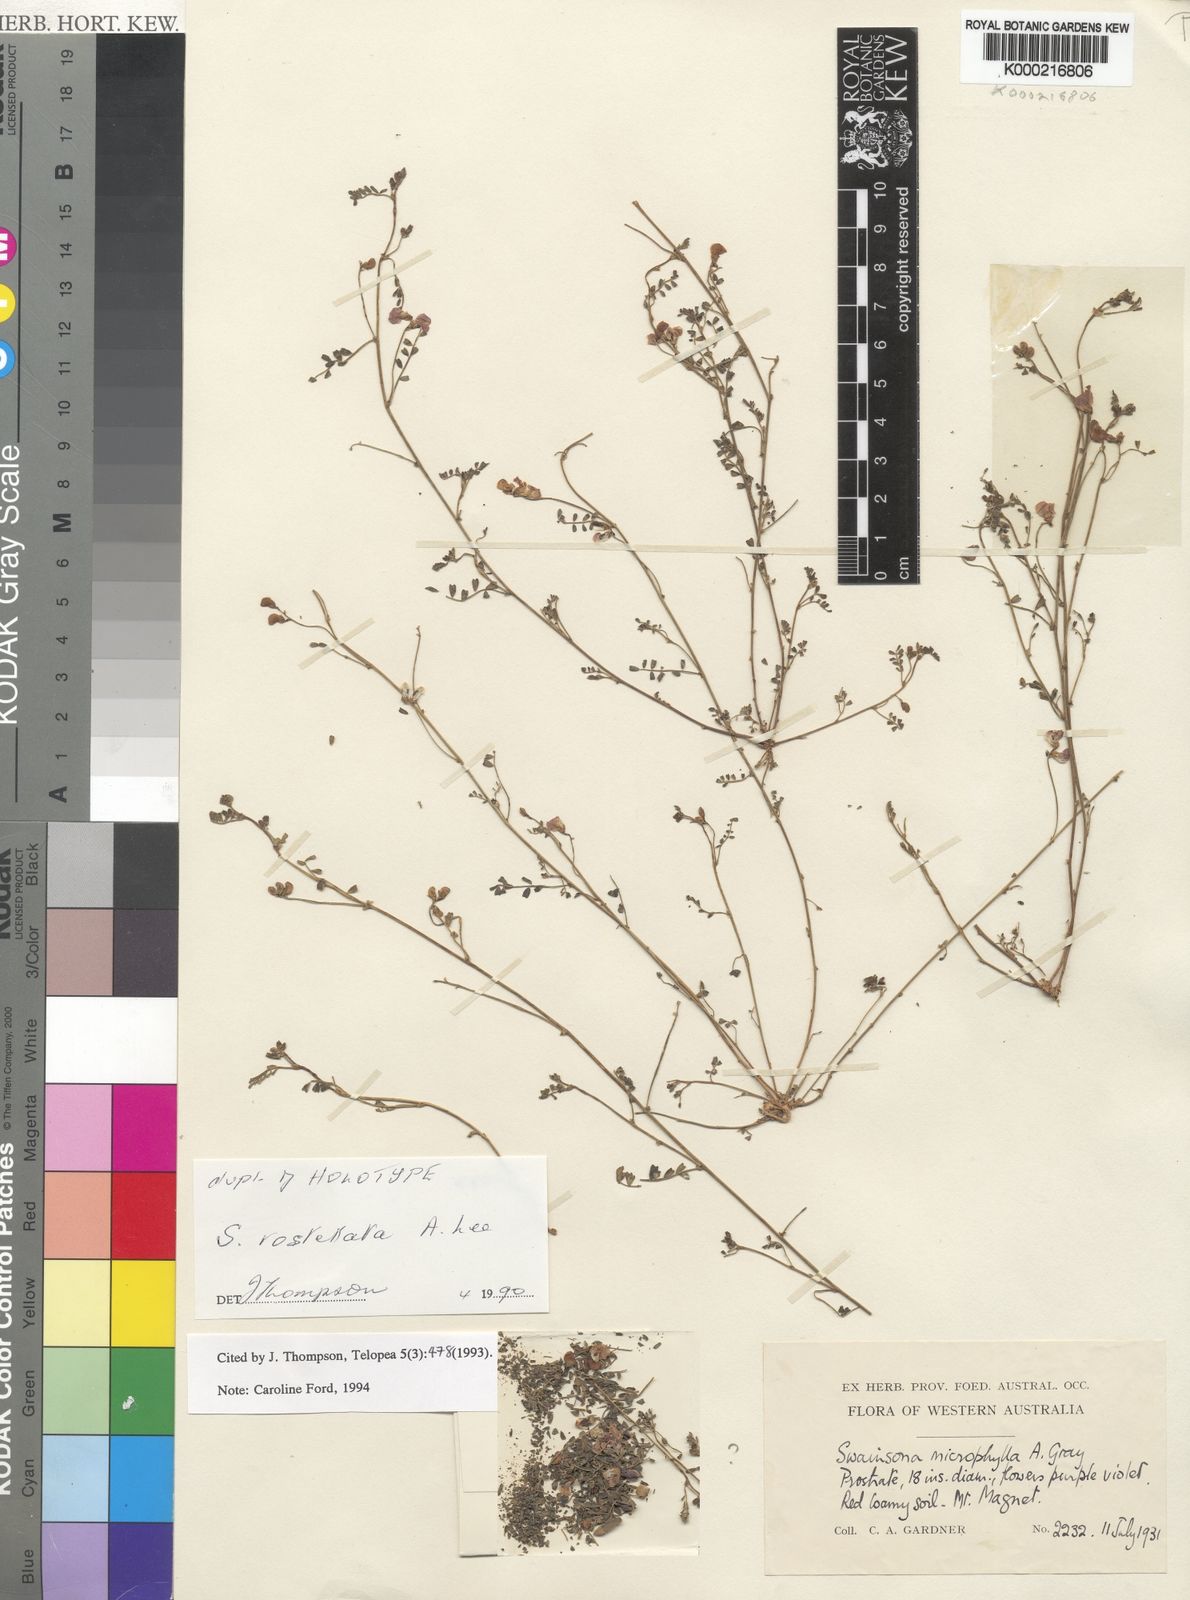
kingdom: Plantae
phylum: Tracheophyta
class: Magnoliopsida
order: Fabales
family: Fabaceae
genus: Swainsona
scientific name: Swainsona rostellata
